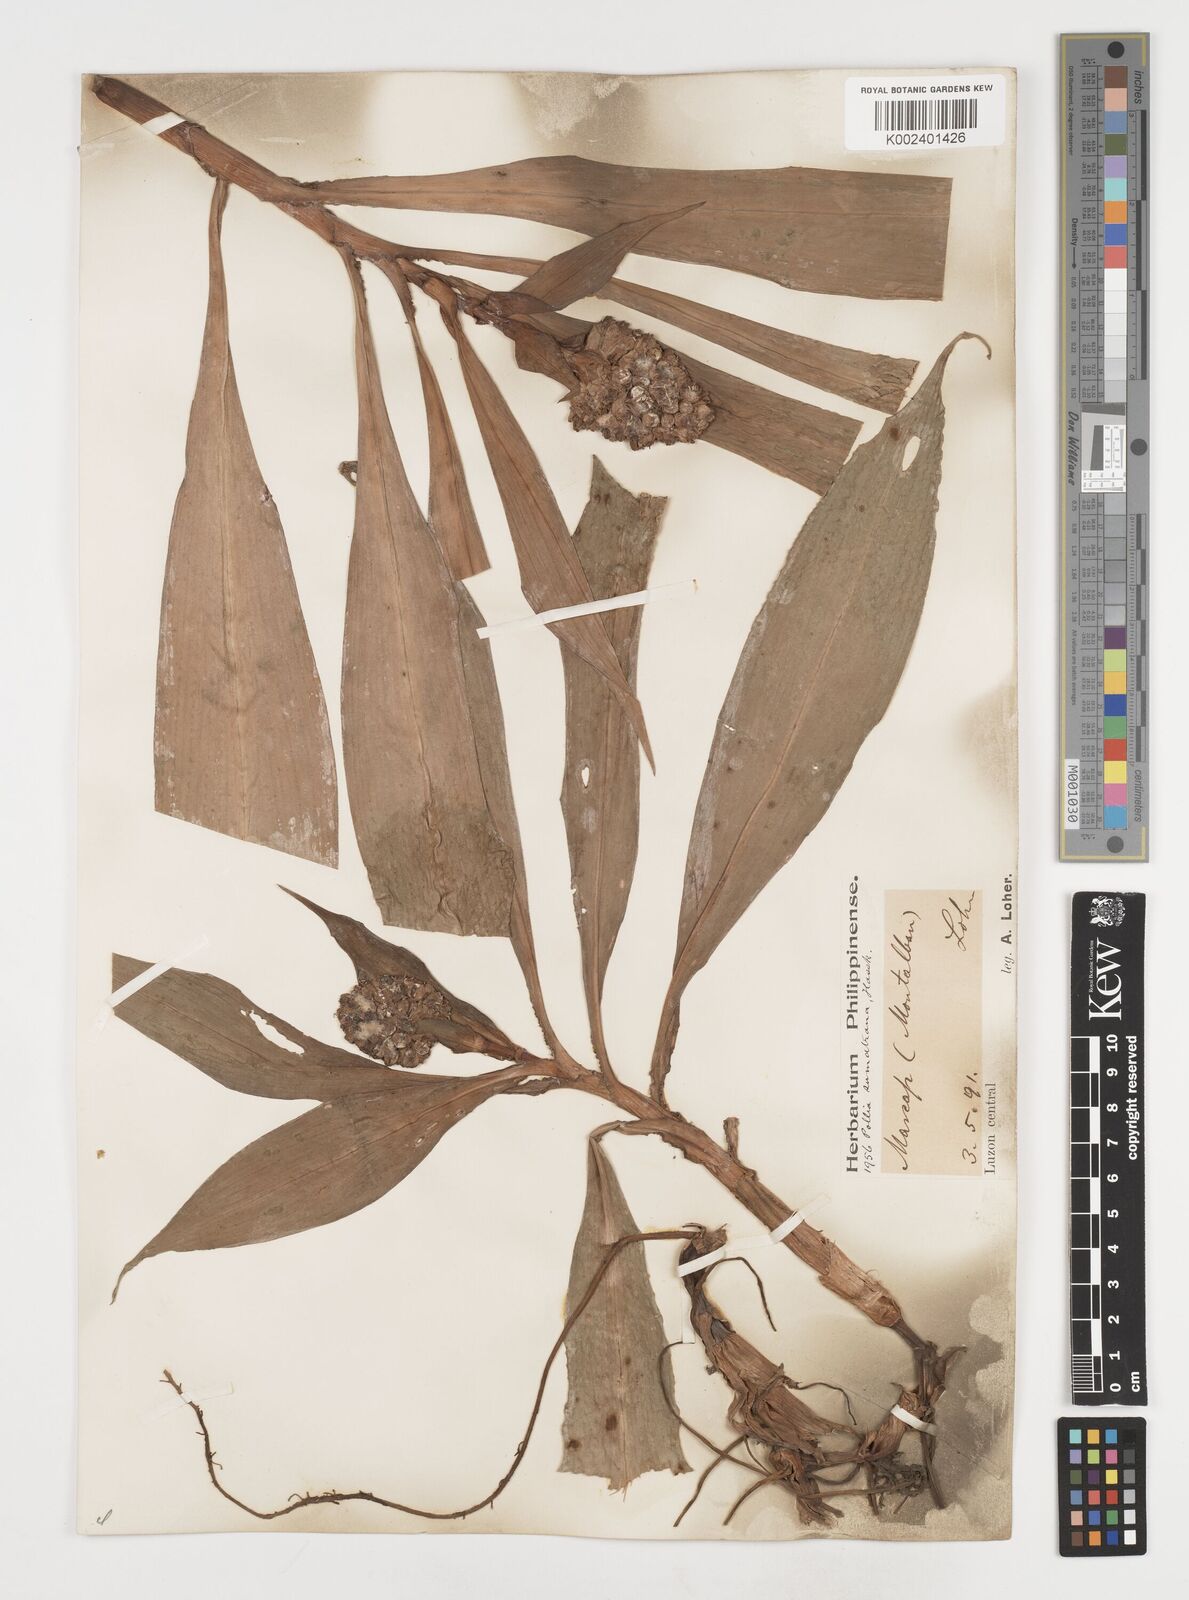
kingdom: Plantae
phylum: Tracheophyta
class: Liliopsida
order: Commelinales
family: Commelinaceae
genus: Pollia
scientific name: Pollia sumatrana
